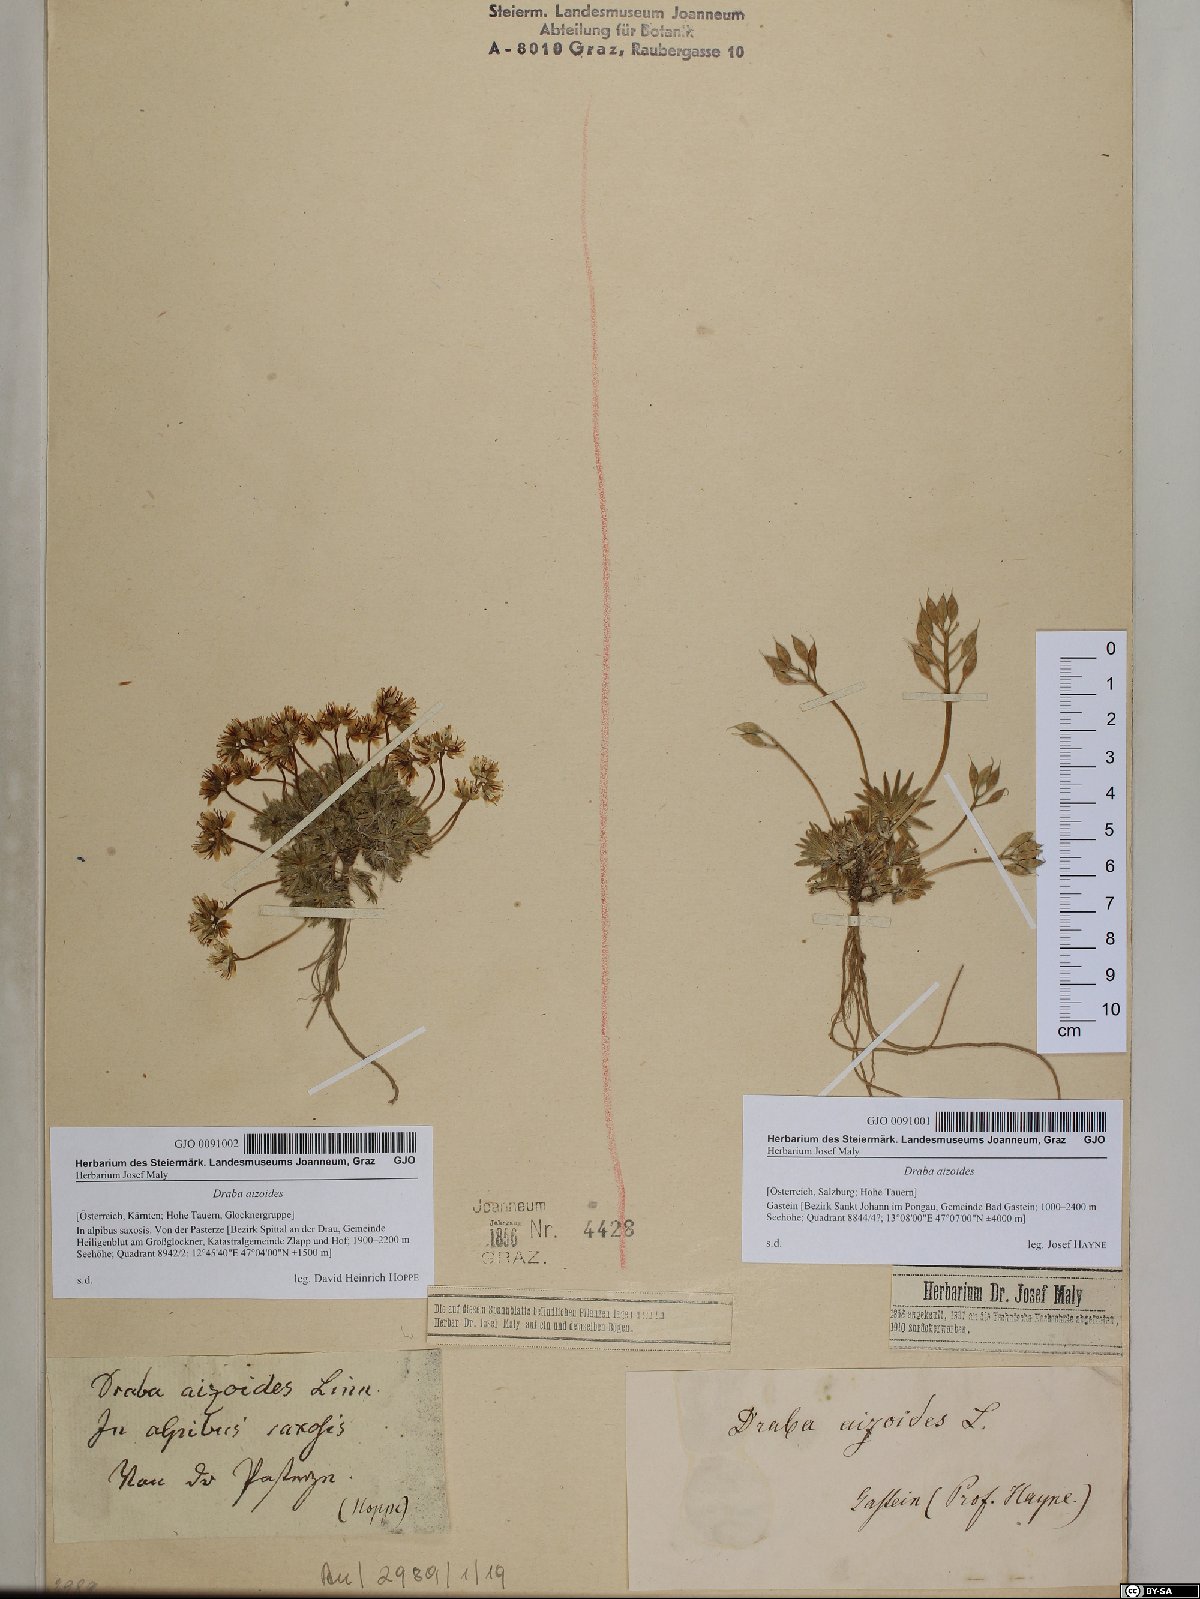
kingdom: Plantae
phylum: Tracheophyta
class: Magnoliopsida
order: Brassicales
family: Brassicaceae
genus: Draba
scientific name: Draba aizoides
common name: Yellow whitlowgrass
